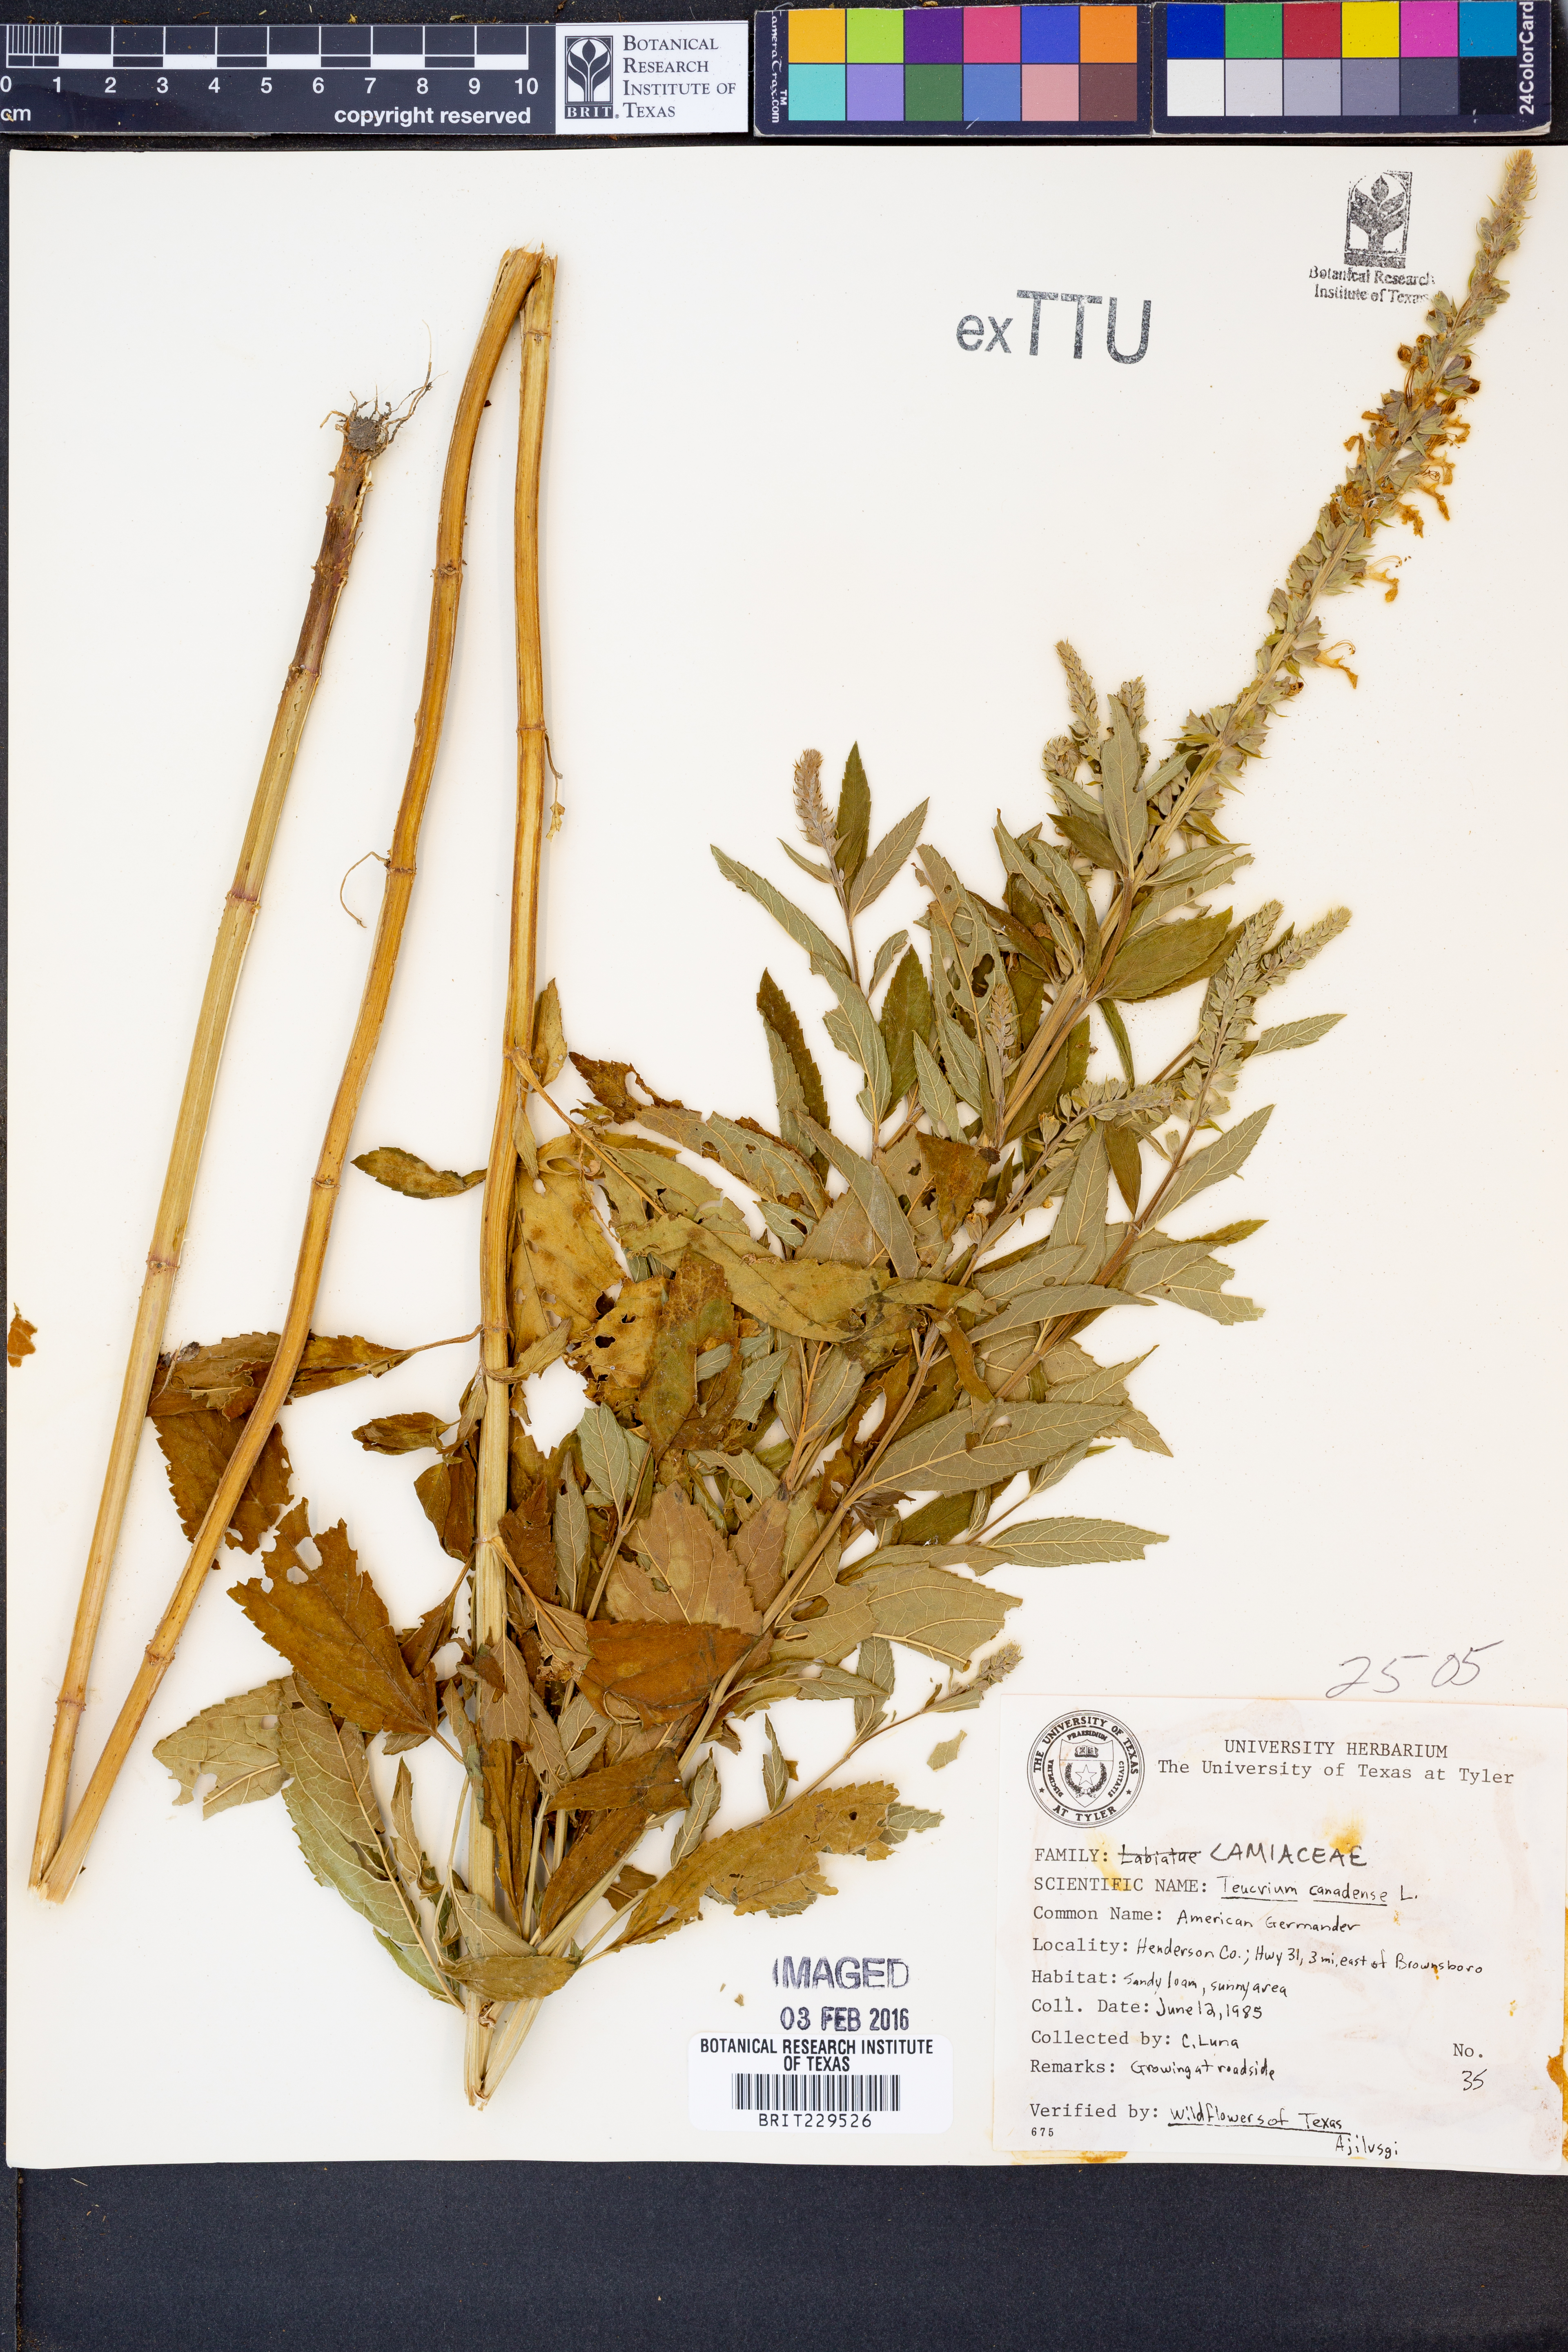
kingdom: Plantae
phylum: Tracheophyta
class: Magnoliopsida
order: Lamiales
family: Lamiaceae
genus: Teucrium
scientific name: Teucrium canadense
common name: American germander
